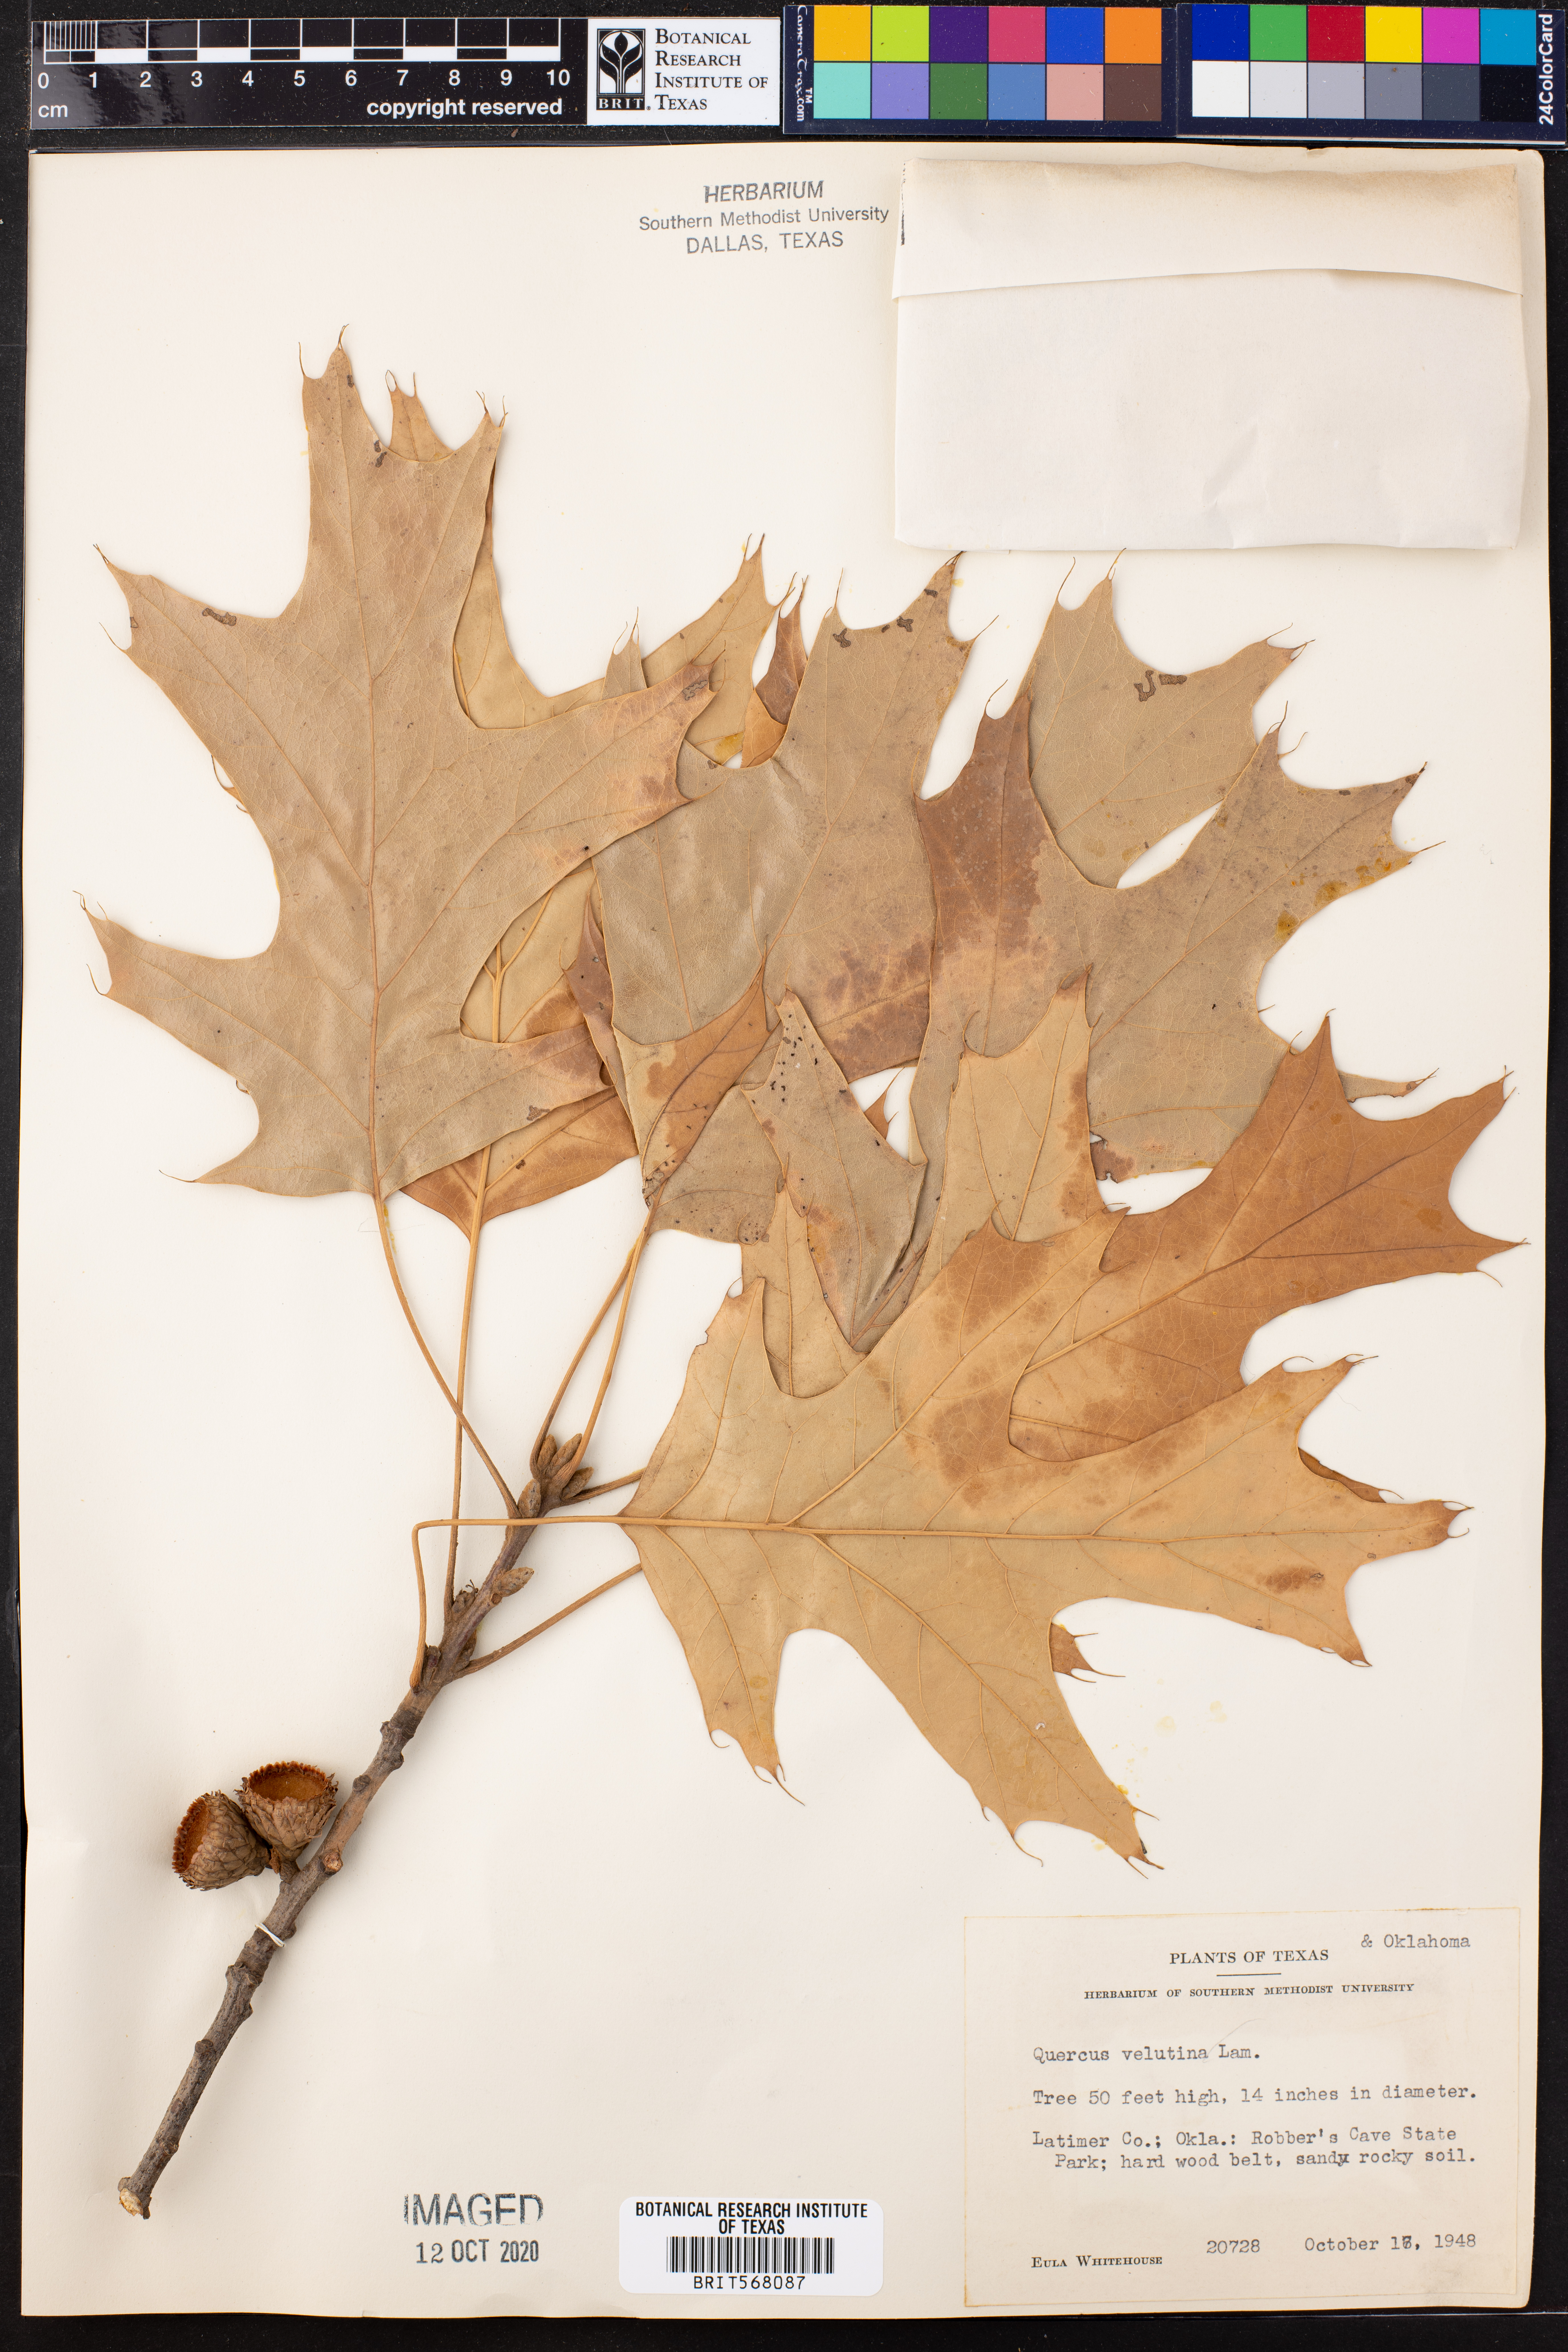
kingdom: Plantae
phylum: Tracheophyta
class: Magnoliopsida
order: Fagales
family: Fagaceae
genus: Quercus
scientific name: Quercus velutina
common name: Black oak
